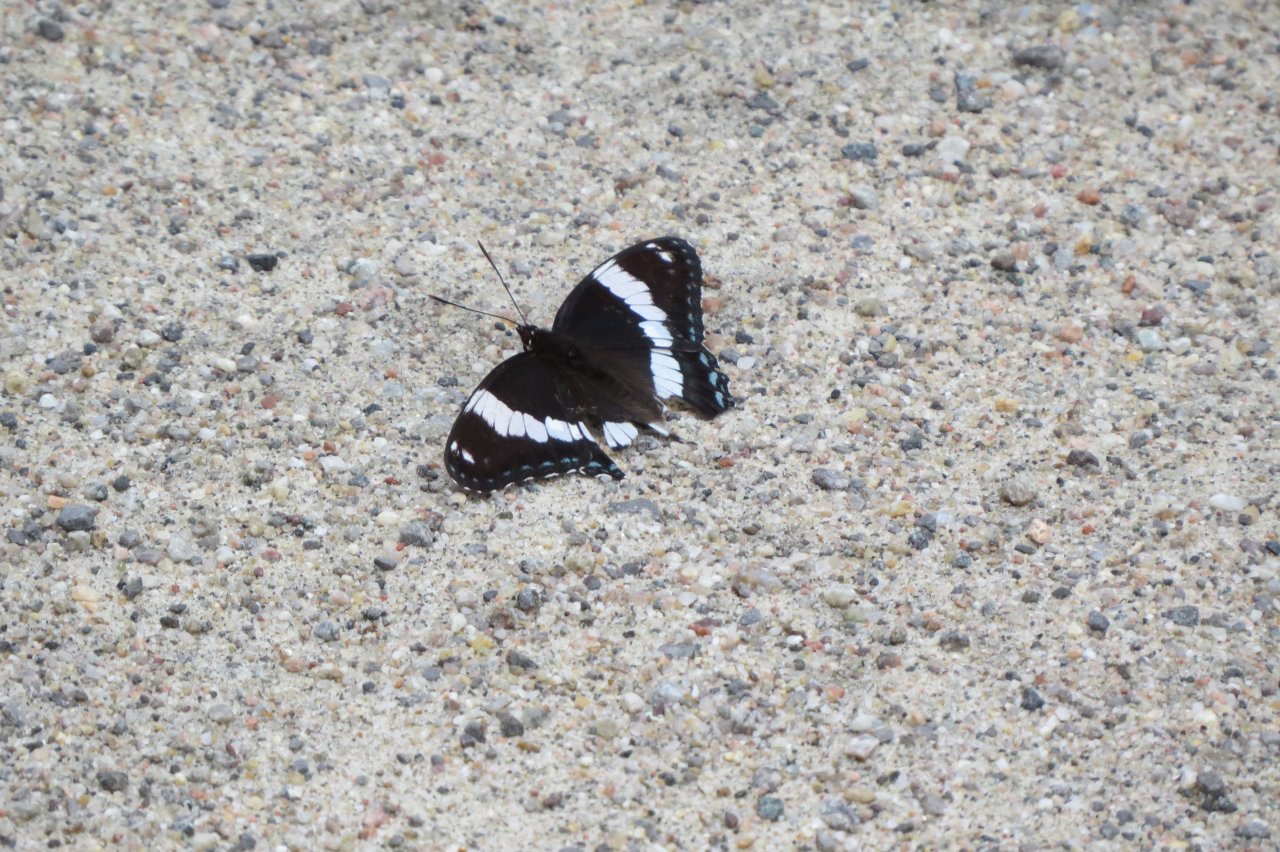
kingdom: Animalia
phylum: Arthropoda
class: Insecta
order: Lepidoptera
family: Nymphalidae
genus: Limenitis
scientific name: Limenitis arthemis
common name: Red-spotted Admiral
